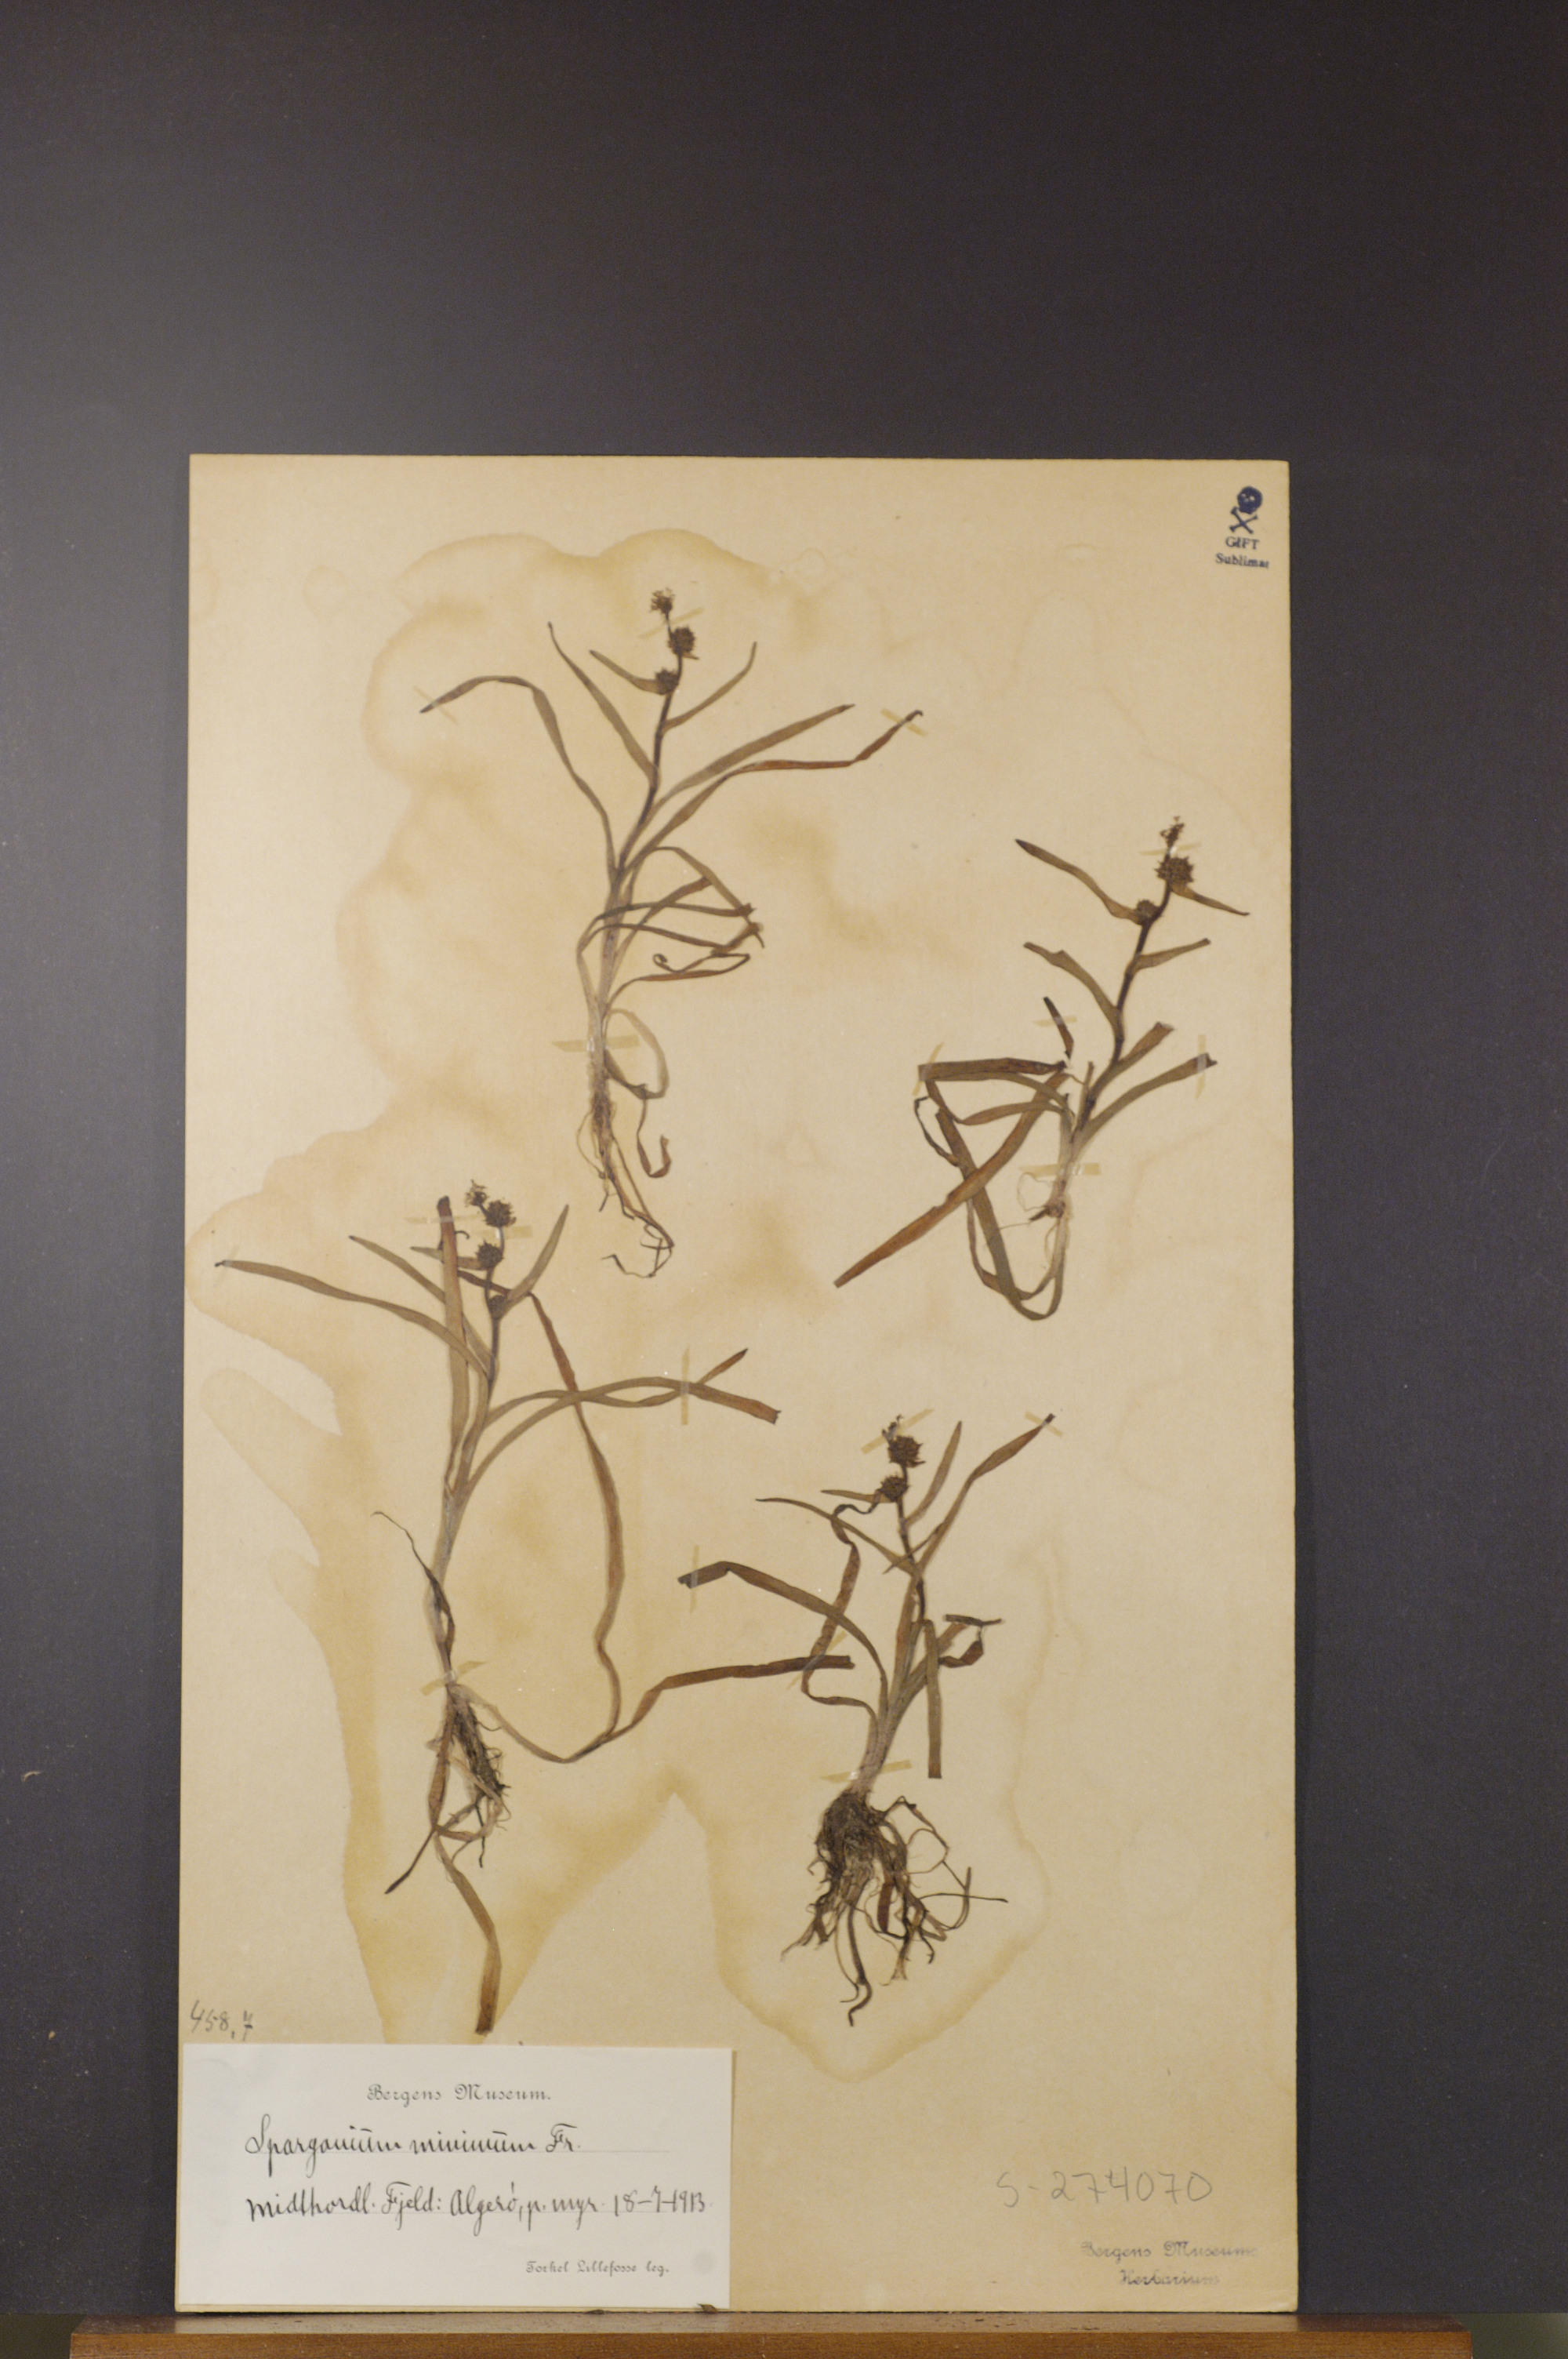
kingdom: Plantae
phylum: Tracheophyta
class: Liliopsida
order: Poales
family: Typhaceae
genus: Sparganium
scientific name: Sparganium natans
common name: Least bur-reed
